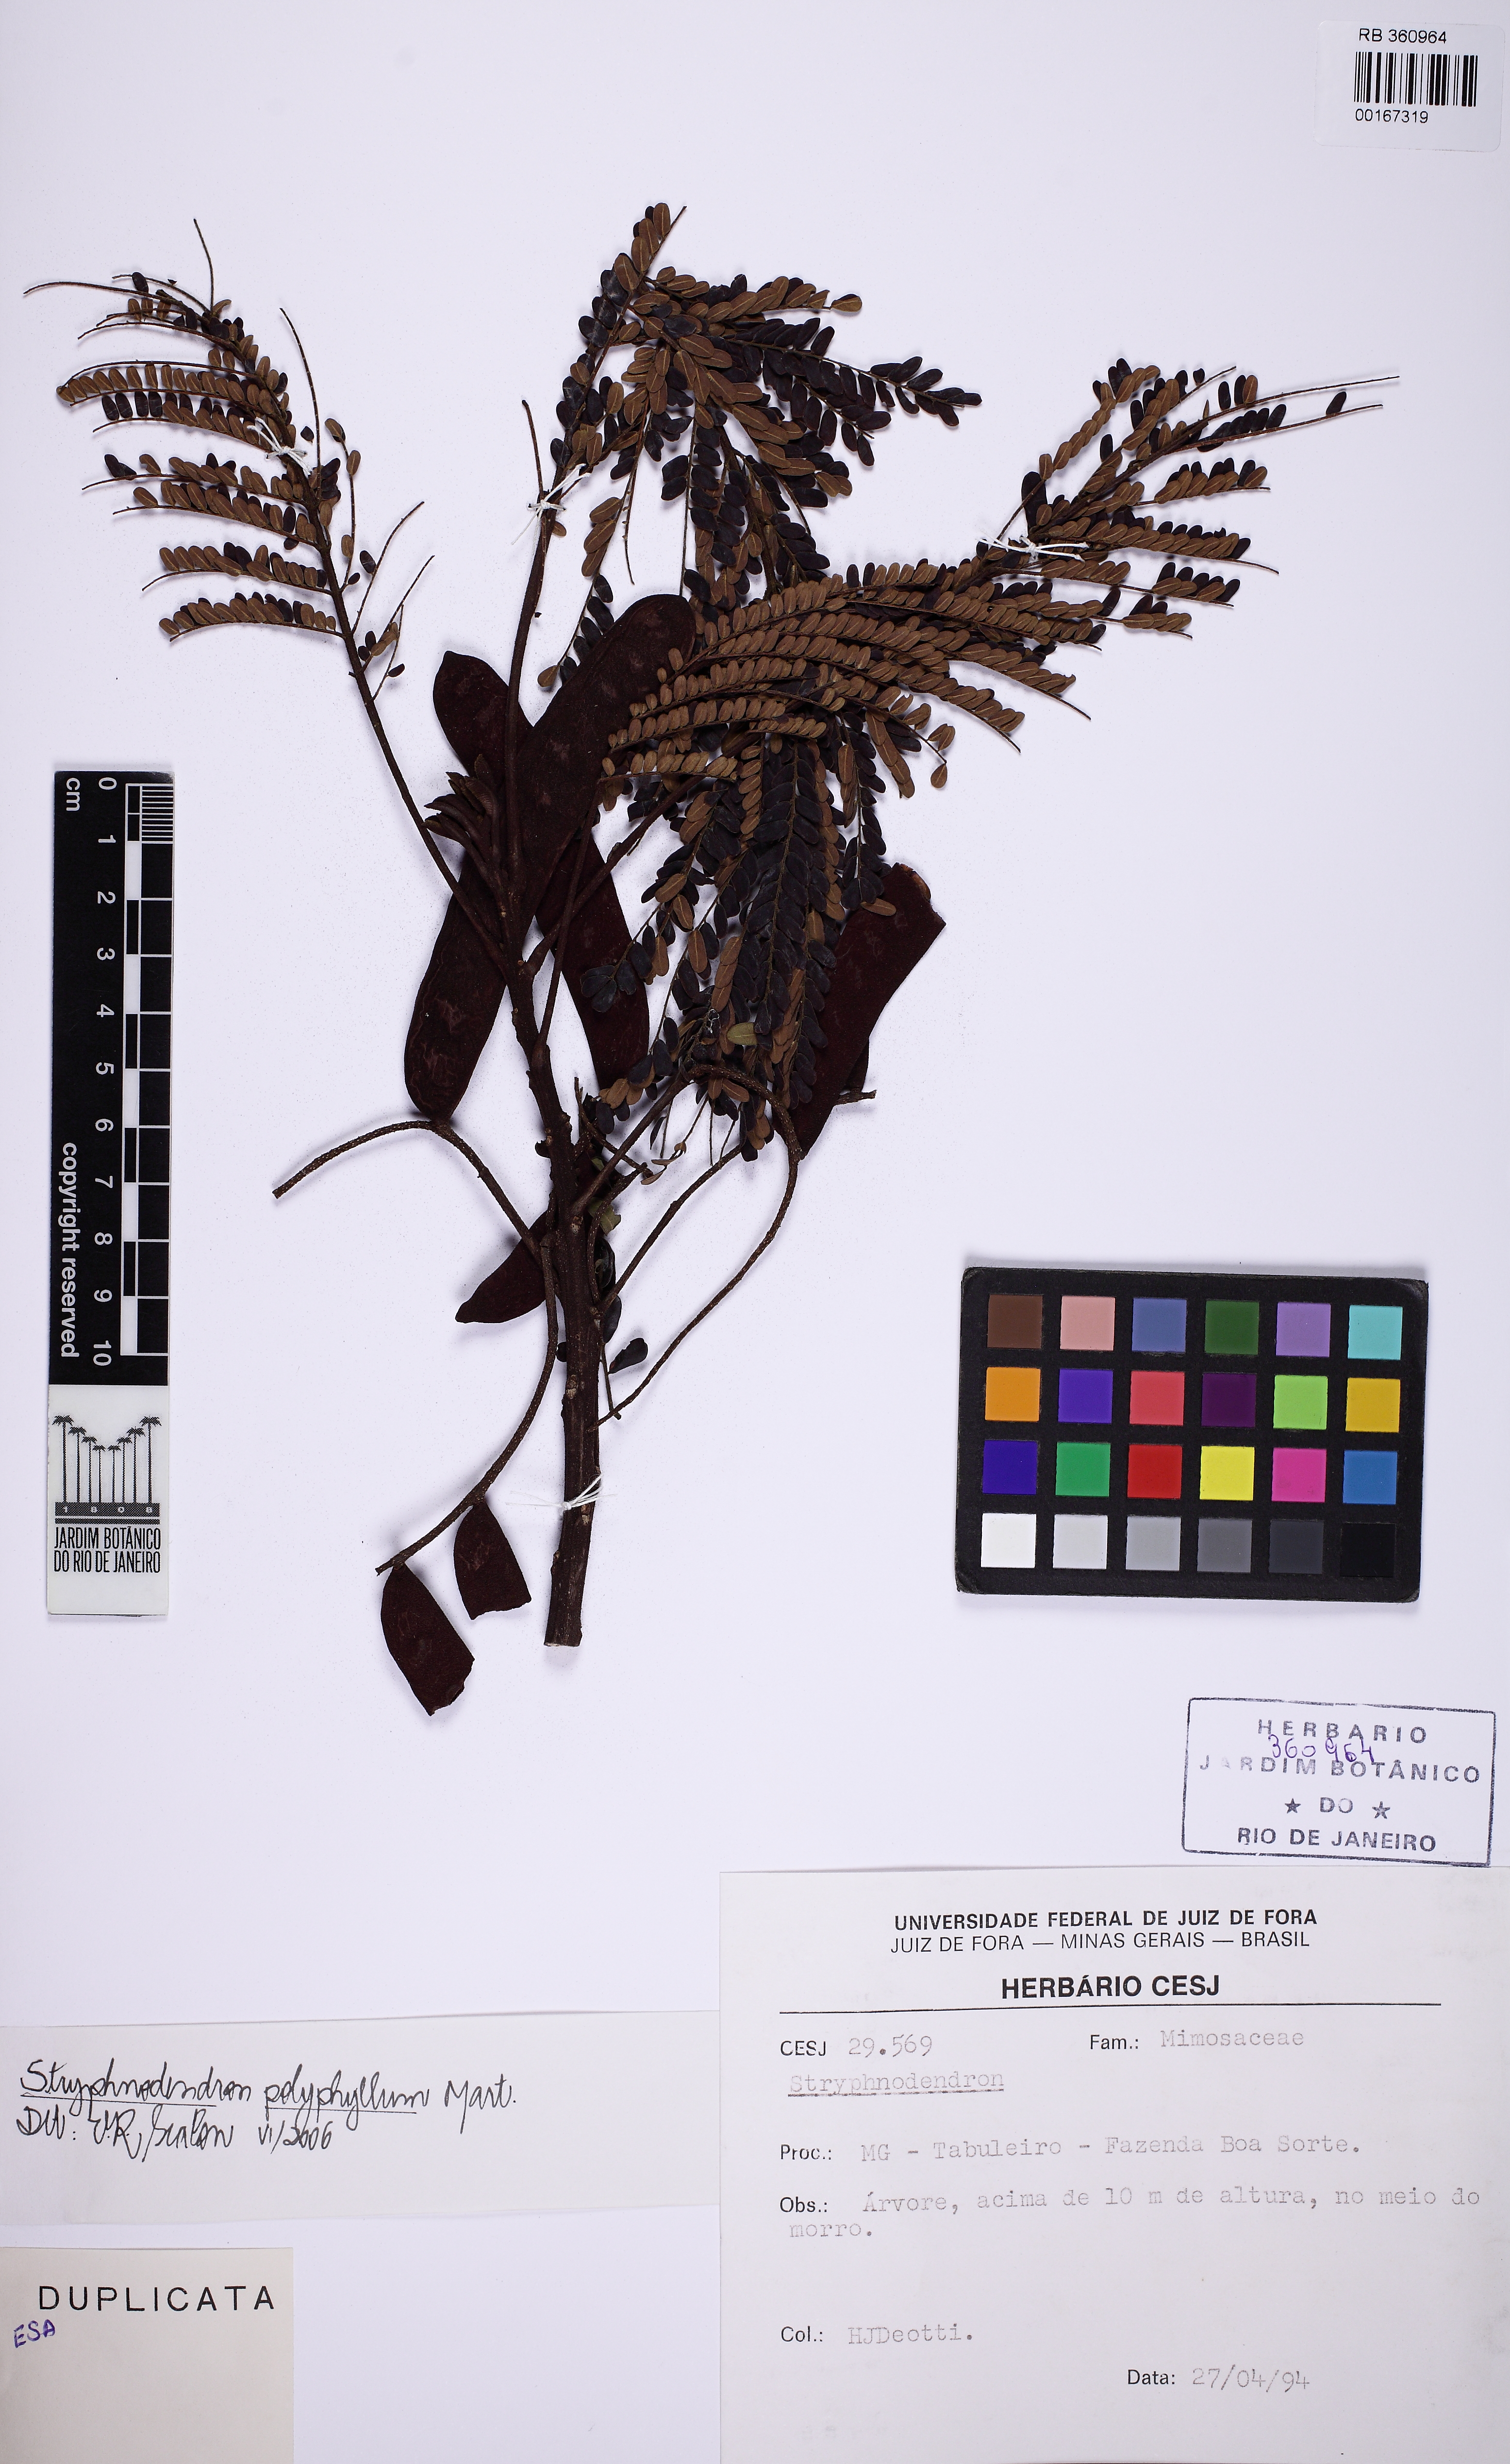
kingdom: Plantae
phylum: Tracheophyta
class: Magnoliopsida
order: Fabales
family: Fabaceae
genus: Stryphnodendron
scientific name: Stryphnodendron polyphyllum
